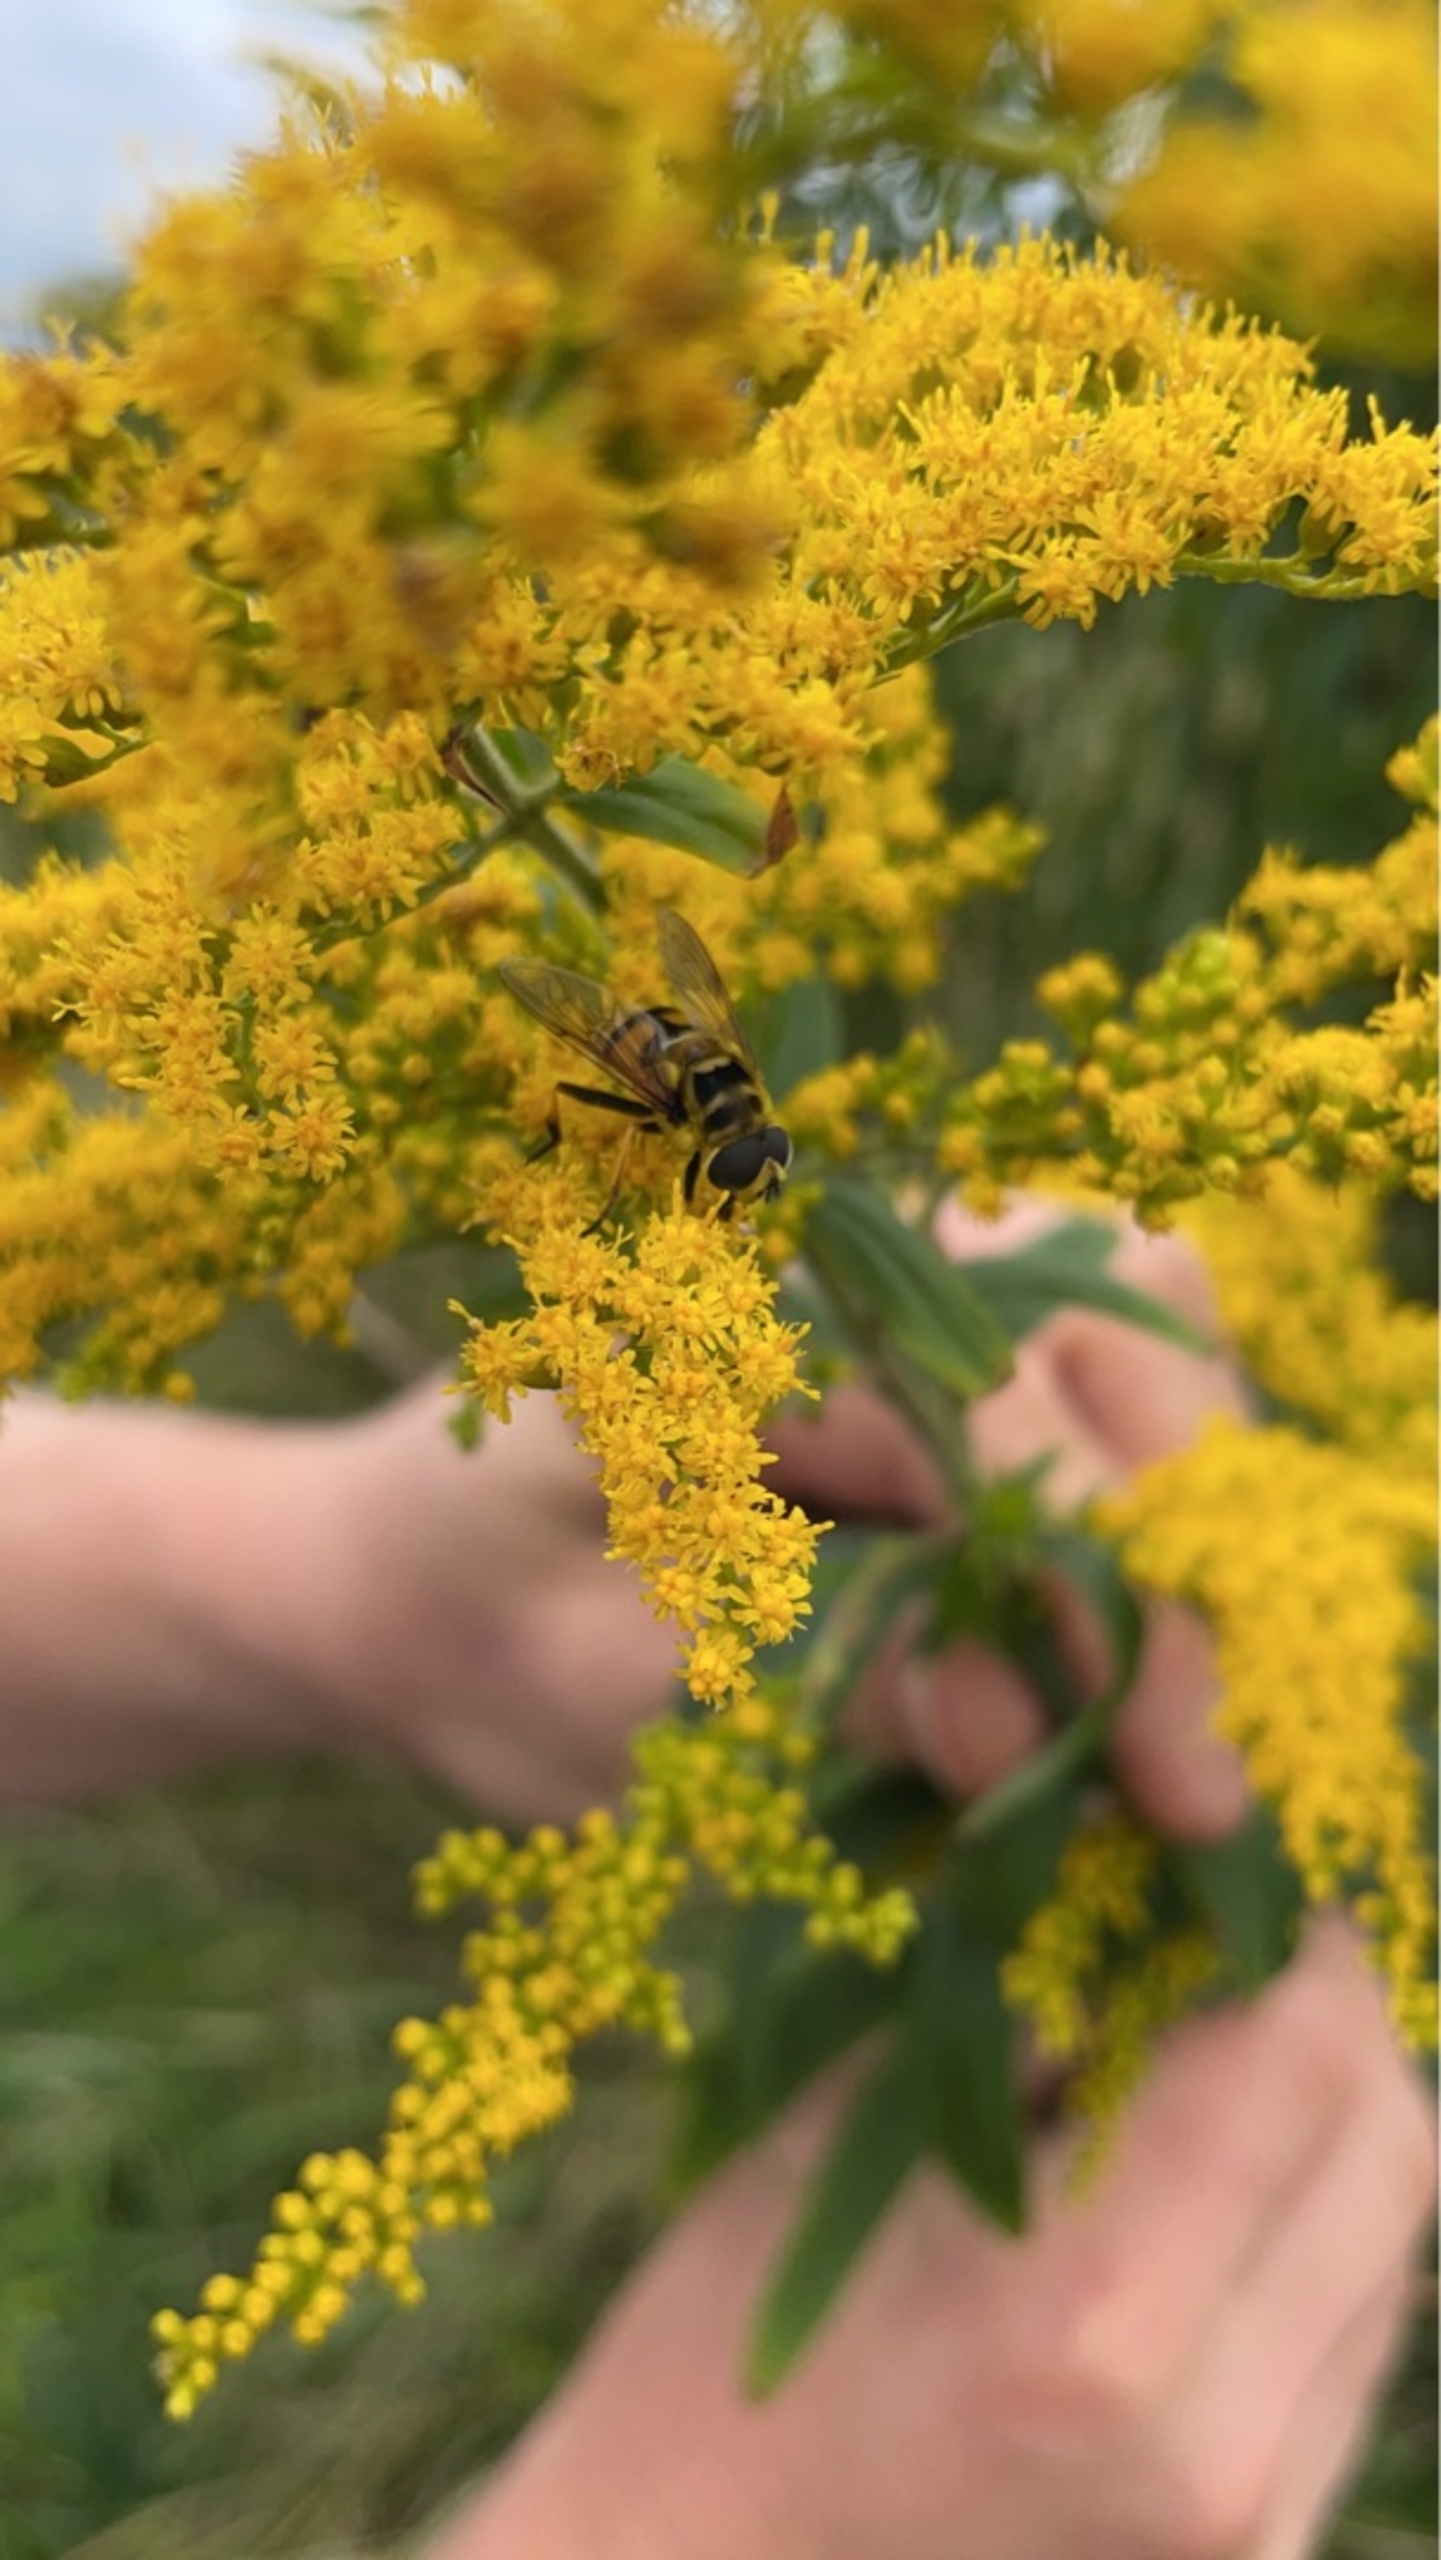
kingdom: Plantae
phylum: Tracheophyta
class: Magnoliopsida
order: Asterales
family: Asteraceae
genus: Solidago
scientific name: Solidago gigantea
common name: Sildig gyldenris
